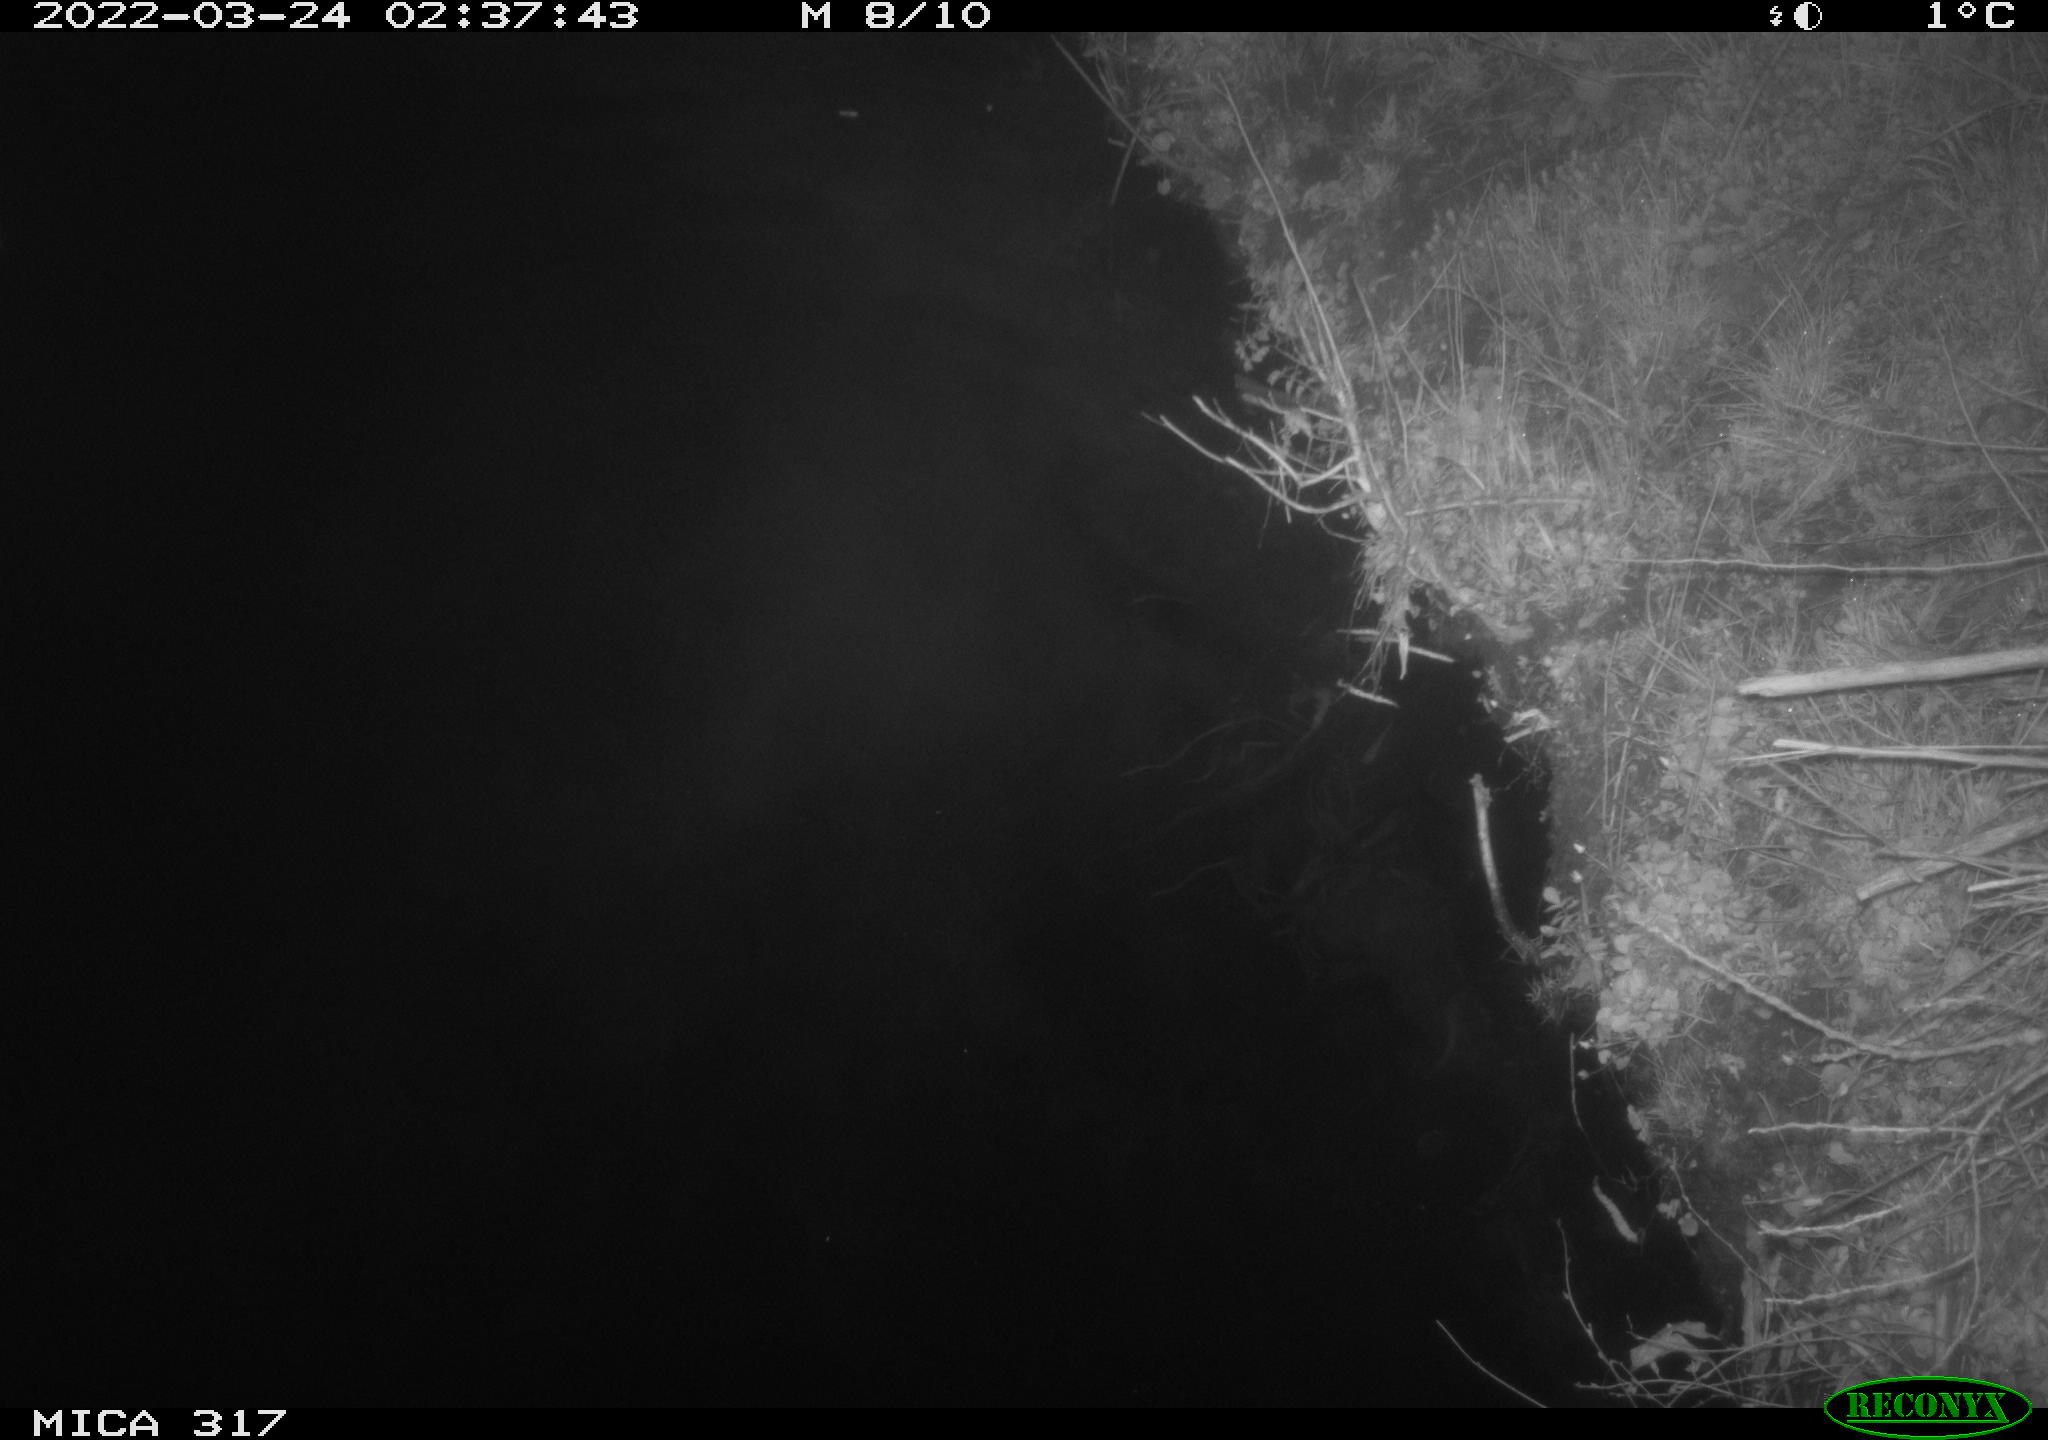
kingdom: Animalia
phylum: Chordata
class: Aves
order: Anseriformes
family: Anatidae
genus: Anas
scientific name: Anas platyrhynchos
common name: Mallard
